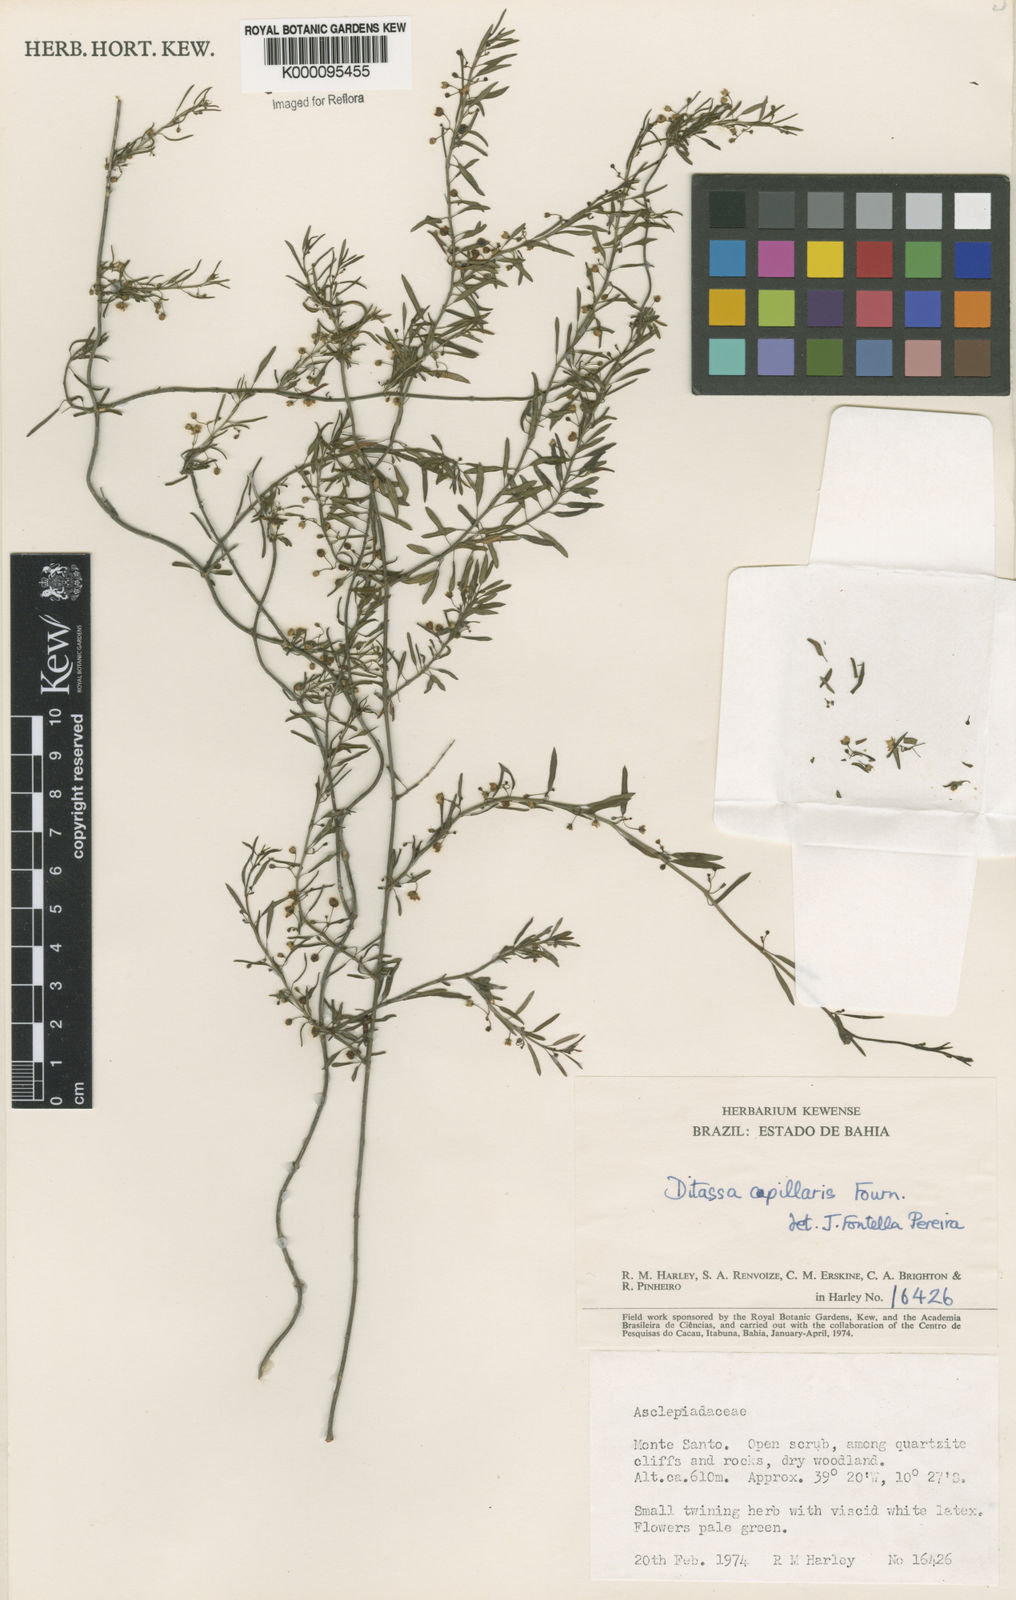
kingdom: Plantae
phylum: Tracheophyta
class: Magnoliopsida
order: Gentianales
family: Apocynaceae
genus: Ditassa
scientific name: Ditassa capillaris
